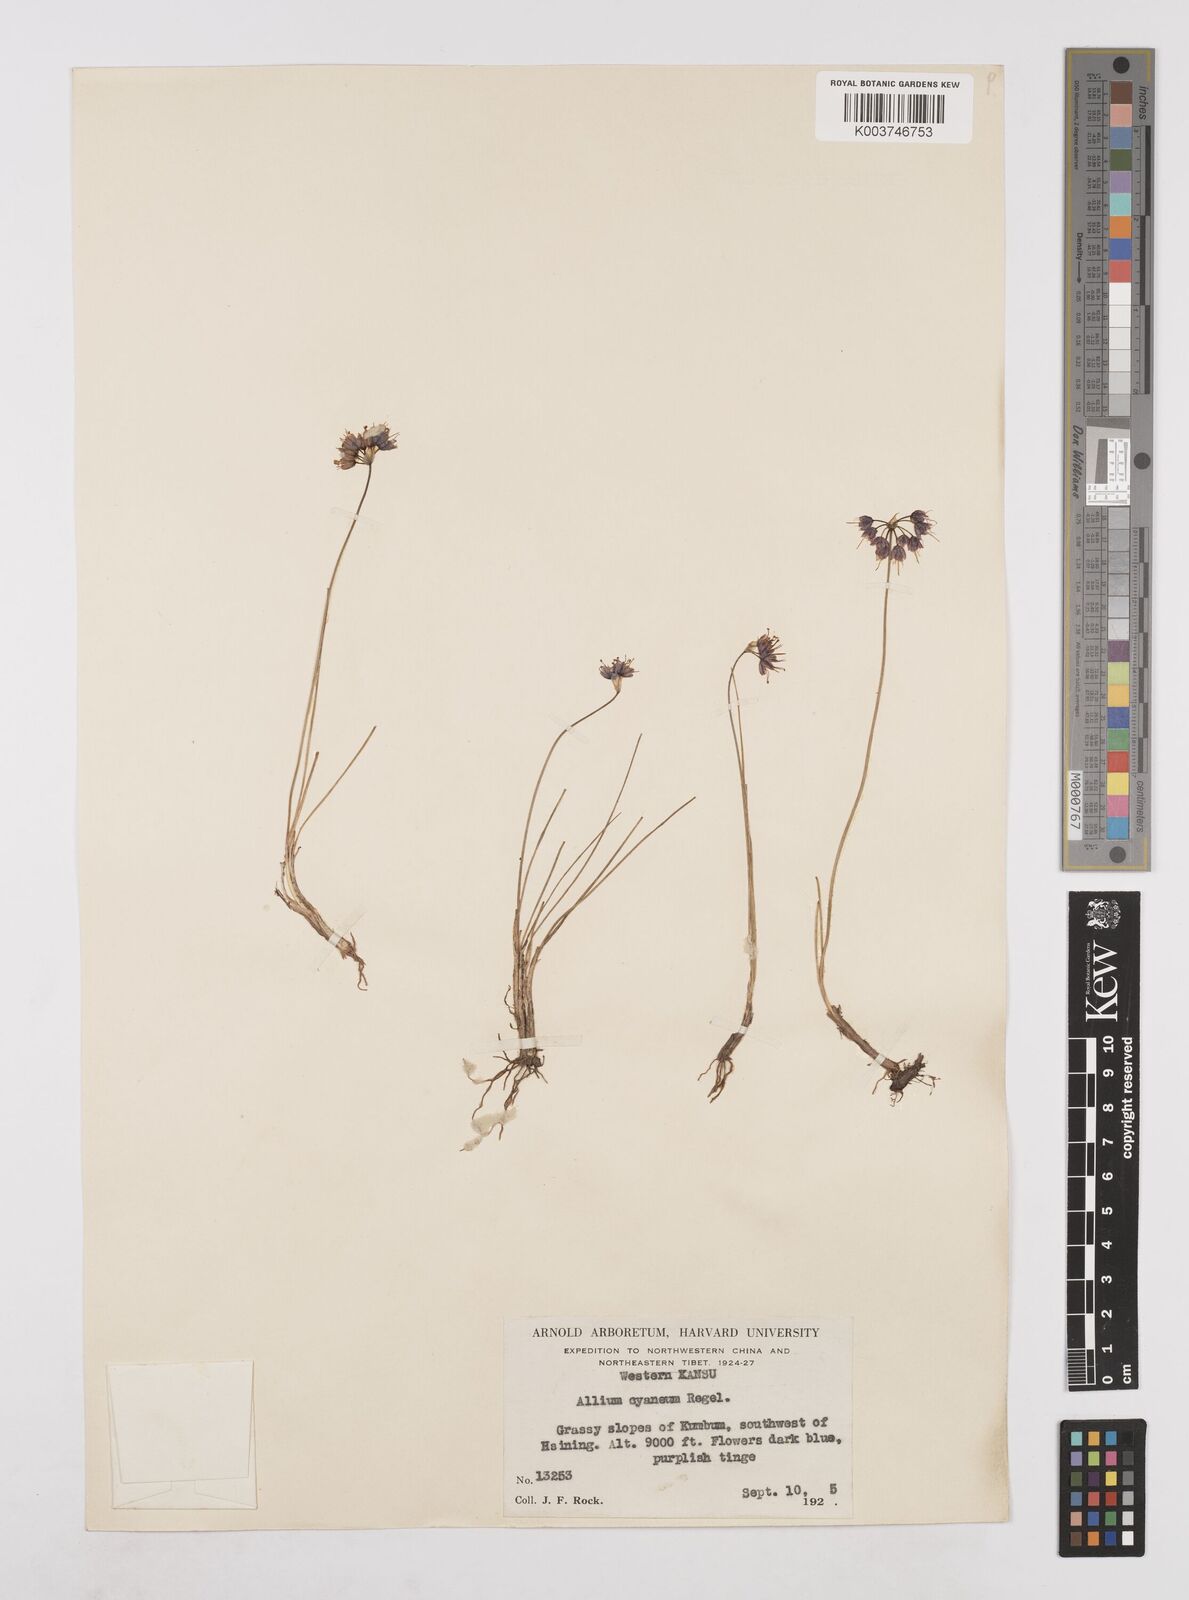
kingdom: Plantae
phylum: Tracheophyta
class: Liliopsida
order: Asparagales
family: Amaryllidaceae
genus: Allium
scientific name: Allium cyaneum
